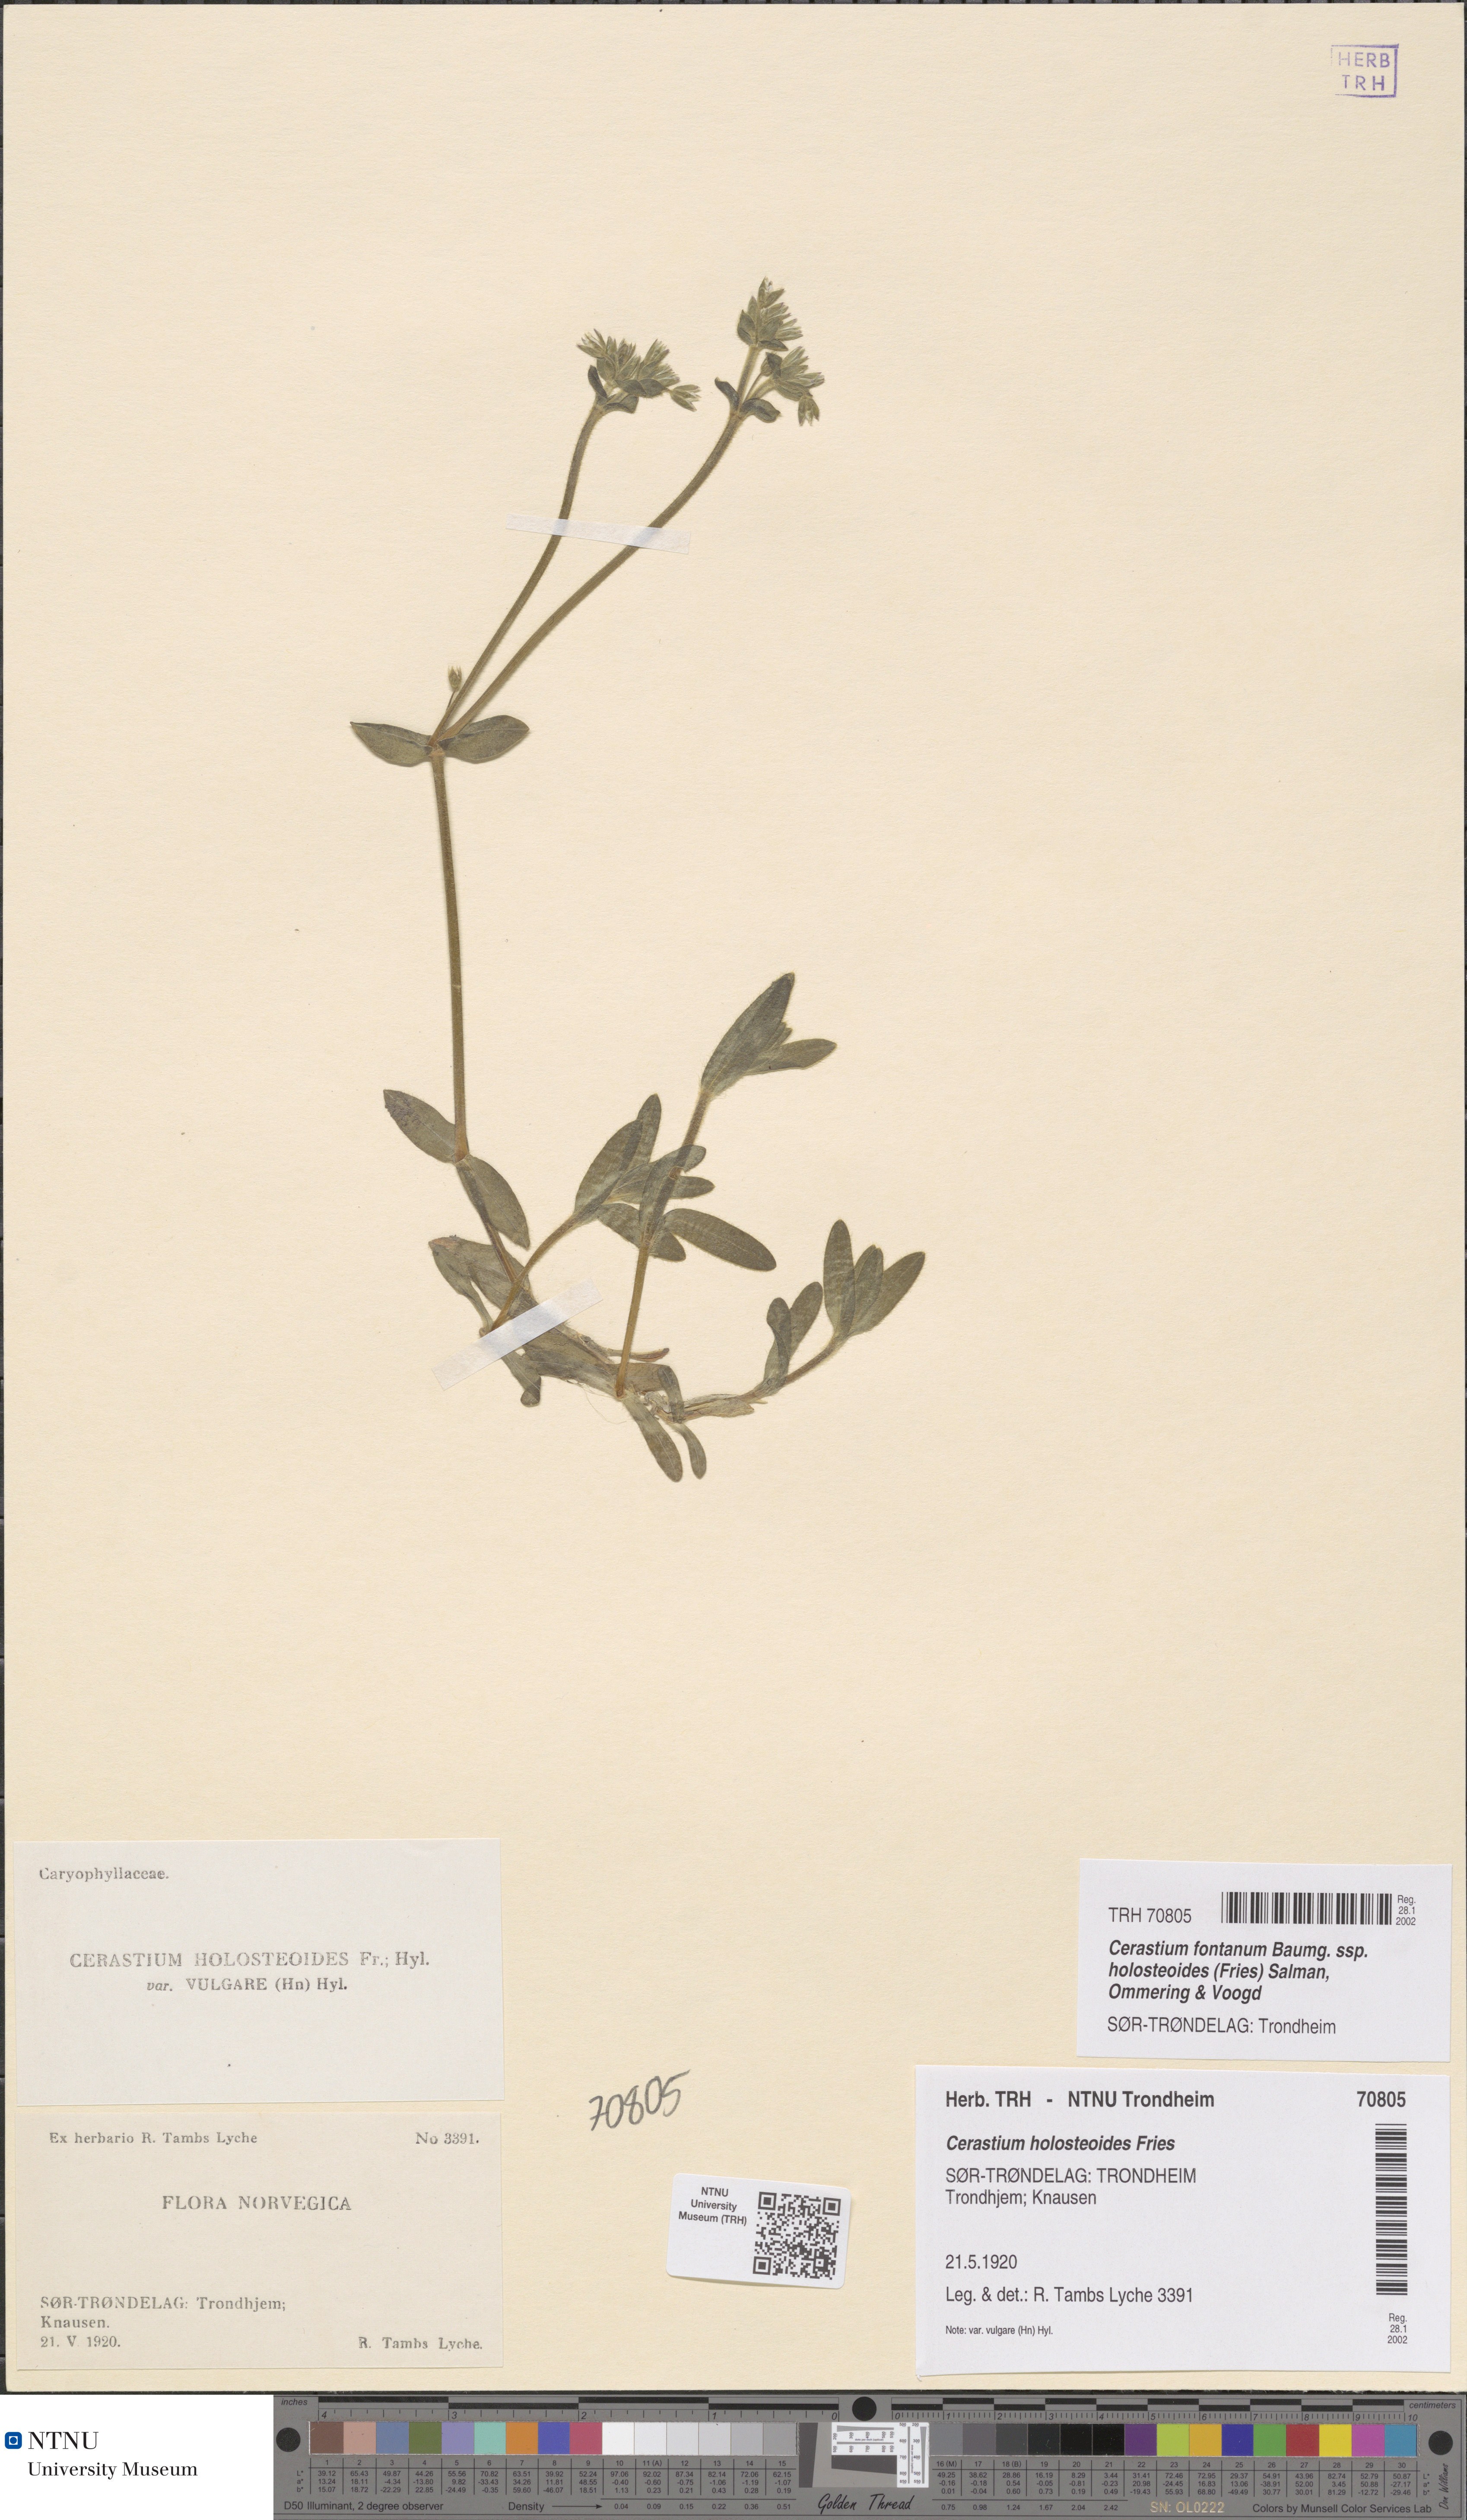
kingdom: Plantae
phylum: Tracheophyta
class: Magnoliopsida
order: Caryophyllales
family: Caryophyllaceae
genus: Cerastium
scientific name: Cerastium holosteoides
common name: Big chickweed
